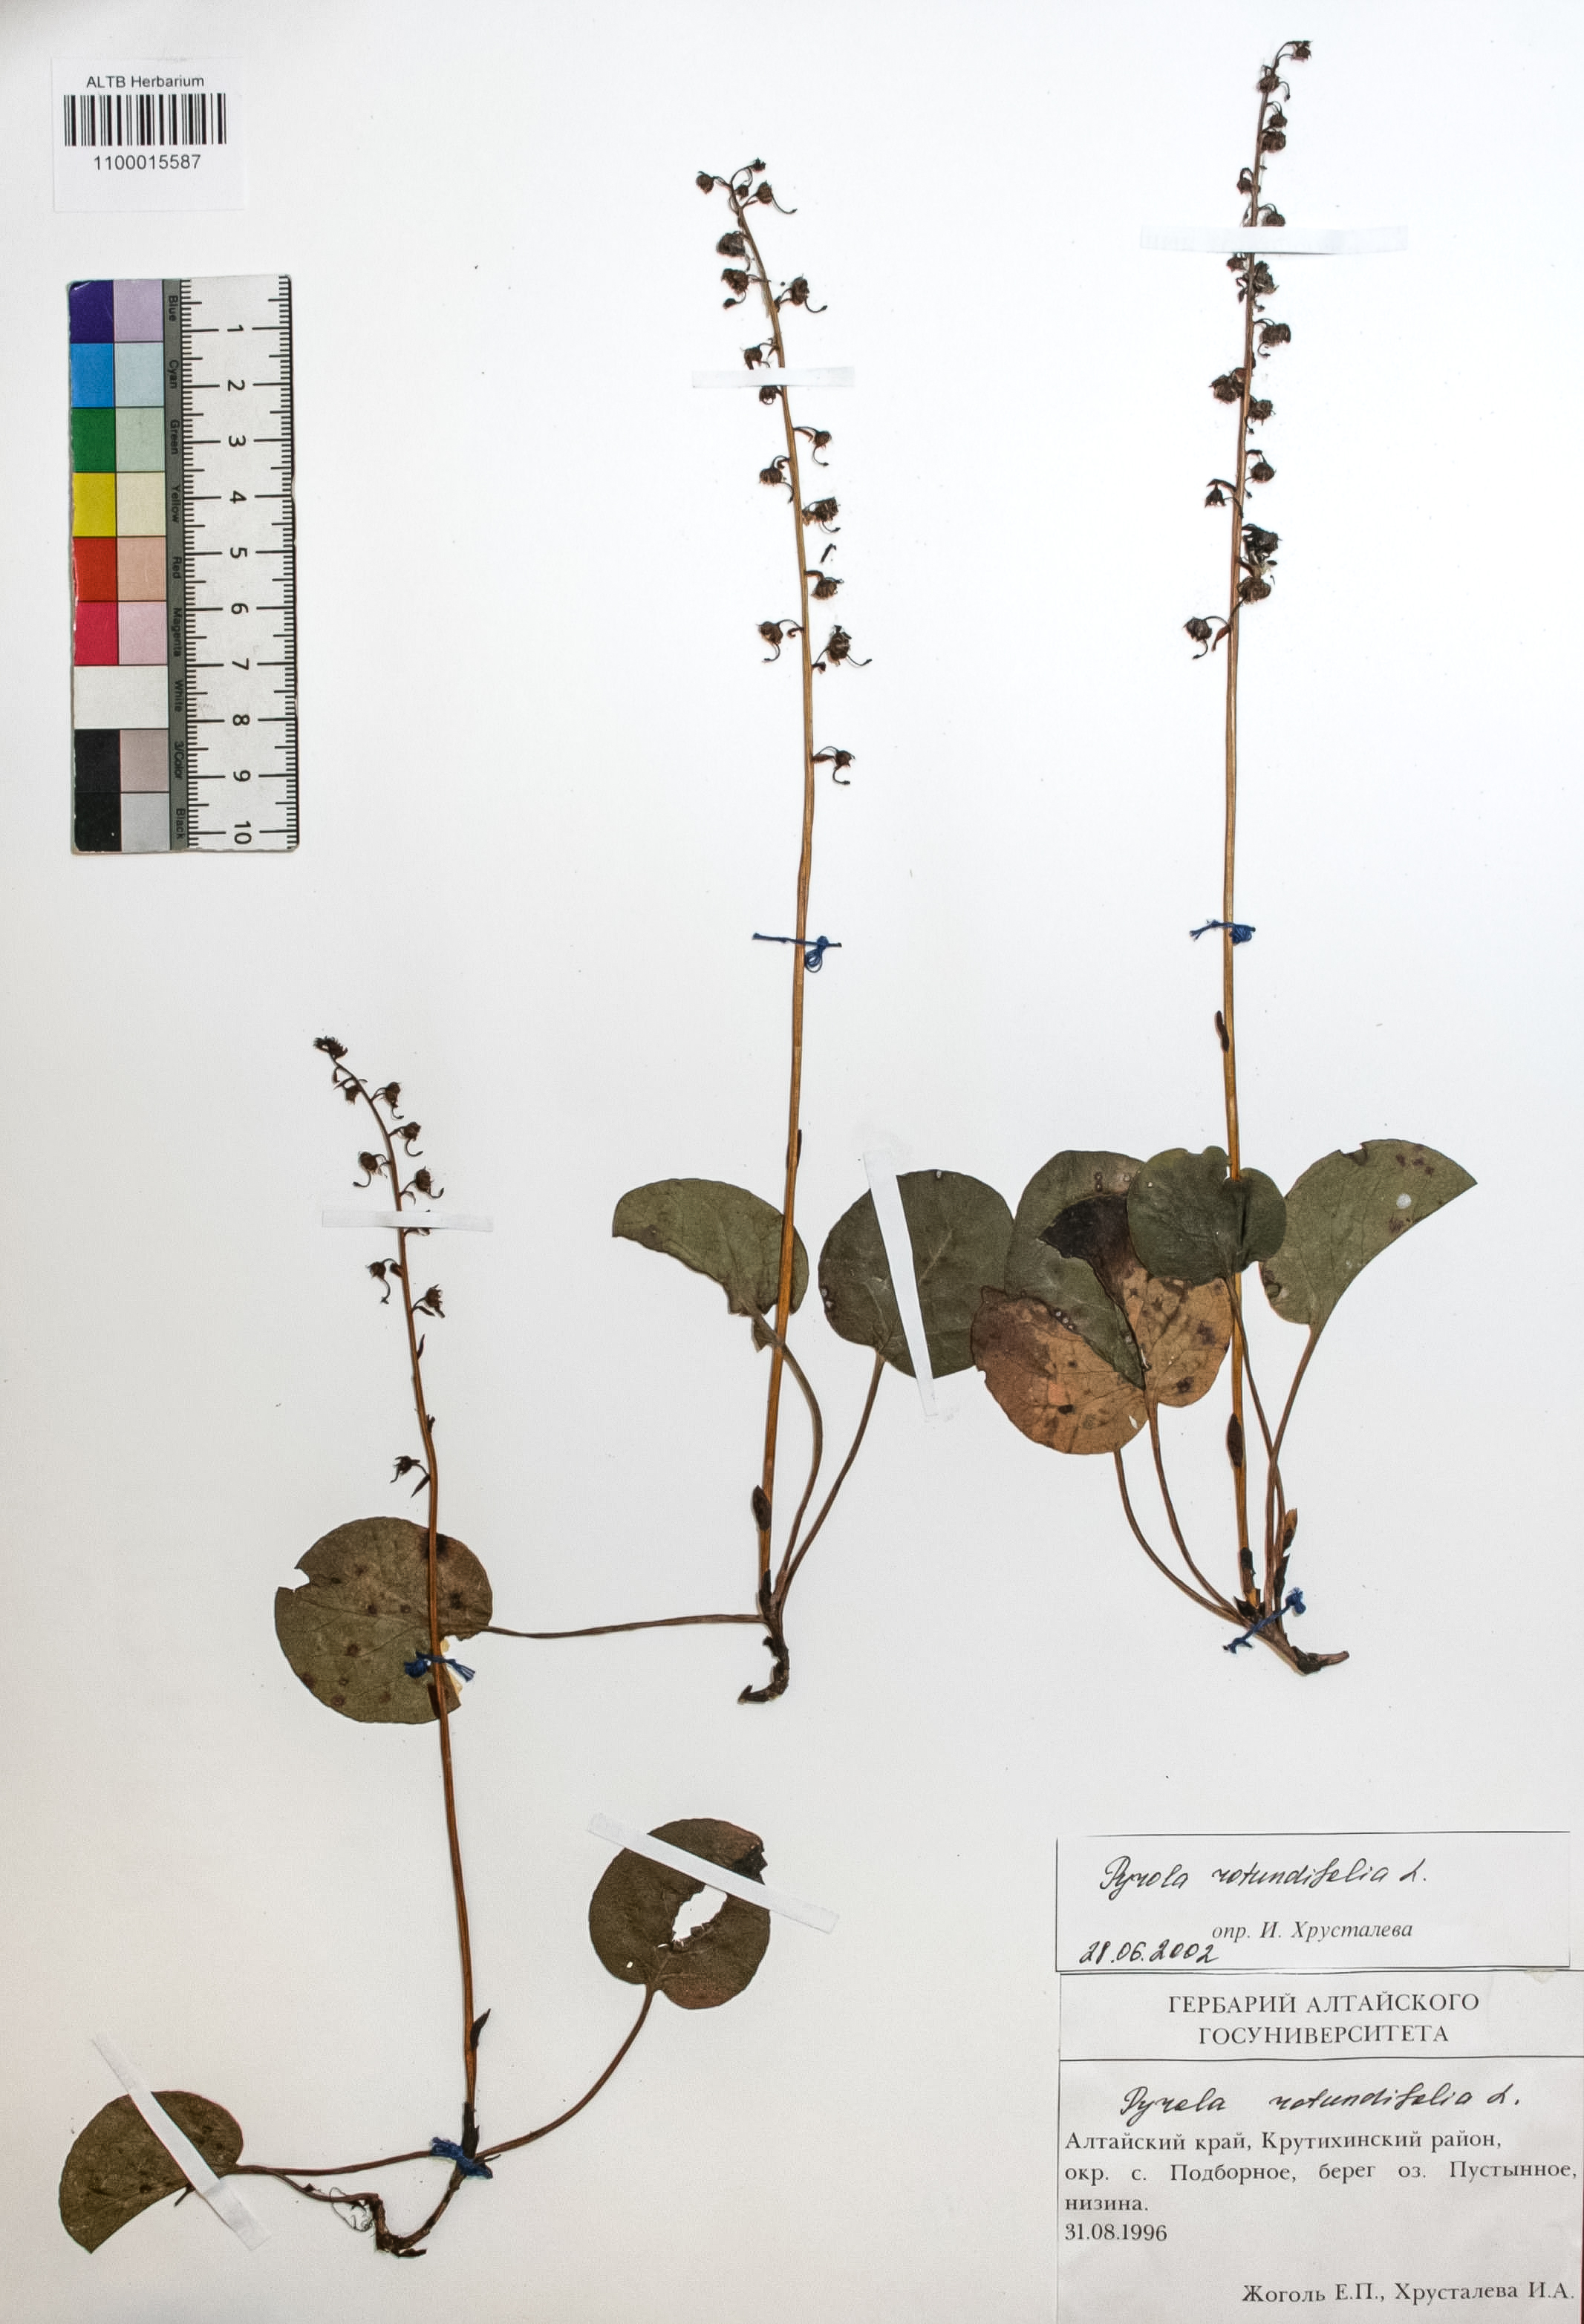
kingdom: Plantae
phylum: Tracheophyta
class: Magnoliopsida
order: Ericales
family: Ericaceae
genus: Pyrola
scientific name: Pyrola rotundifolia
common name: Round-leaved wintergreen
